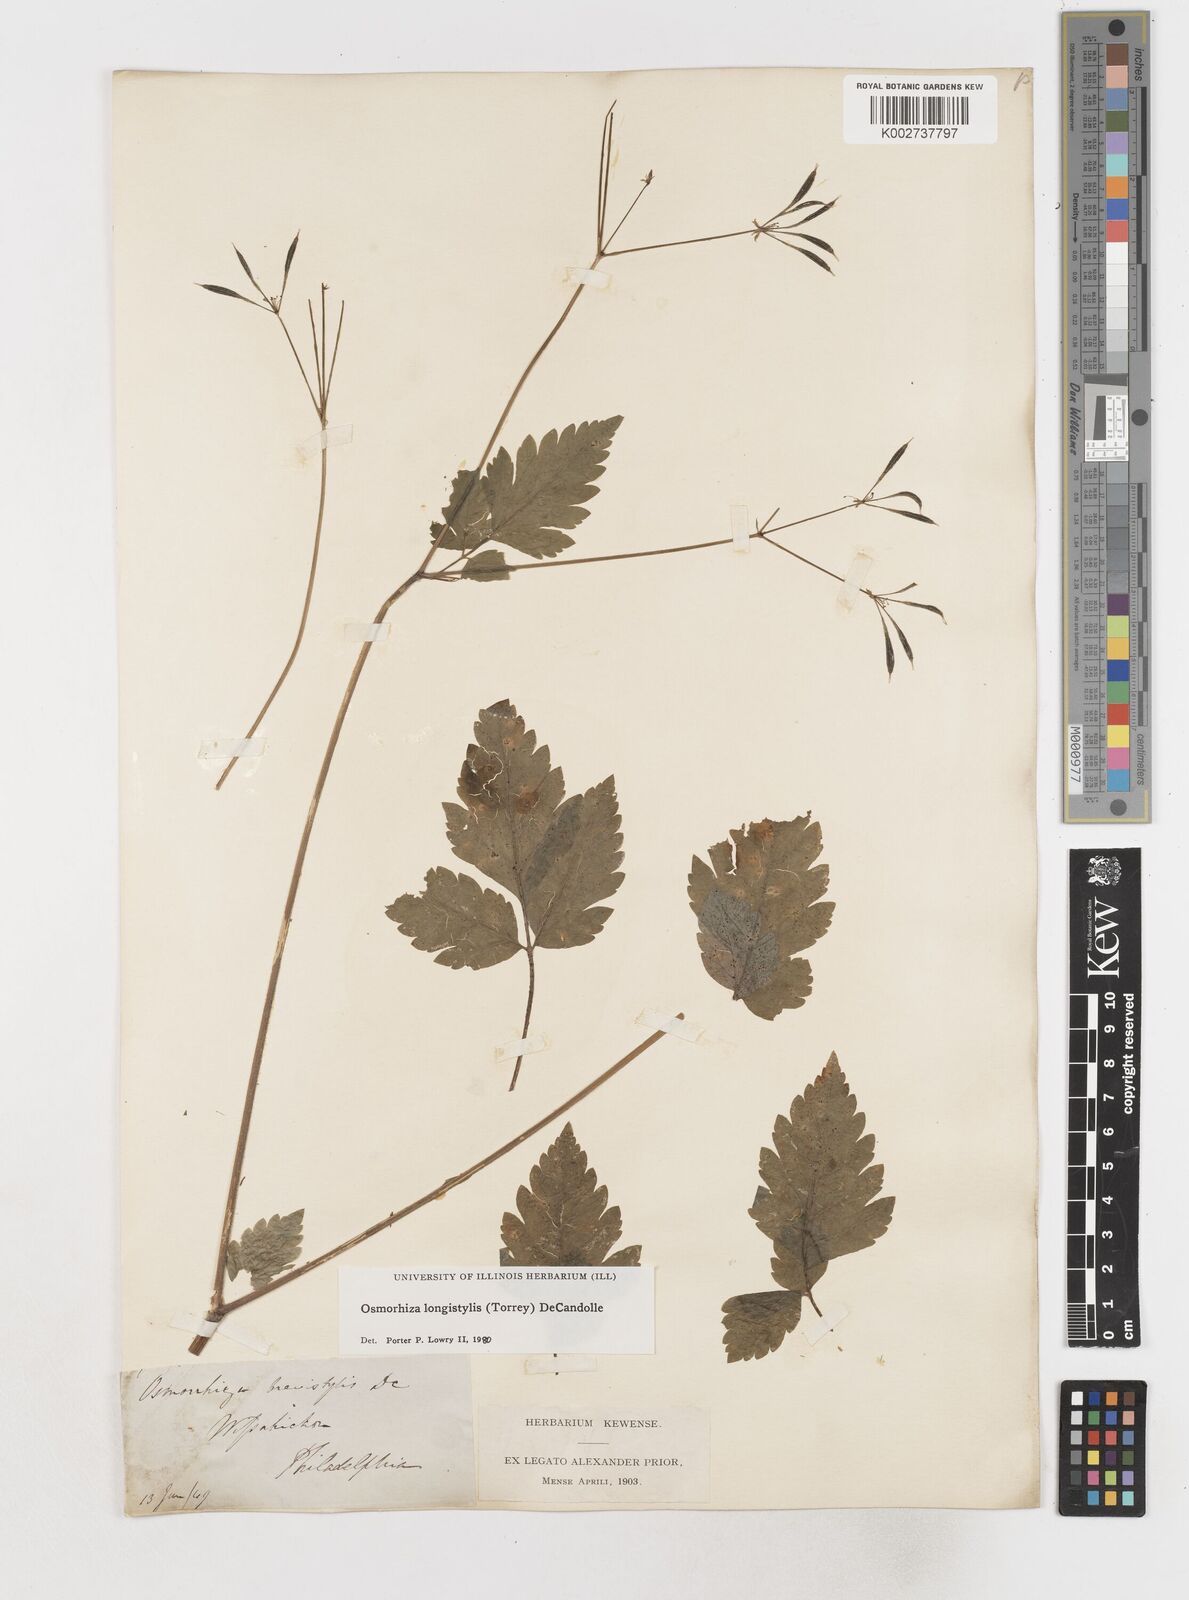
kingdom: Plantae
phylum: Tracheophyta
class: Magnoliopsida
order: Apiales
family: Apiaceae
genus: Osmorhiza
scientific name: Osmorhiza longistylis
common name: Smooth sweet cicely
